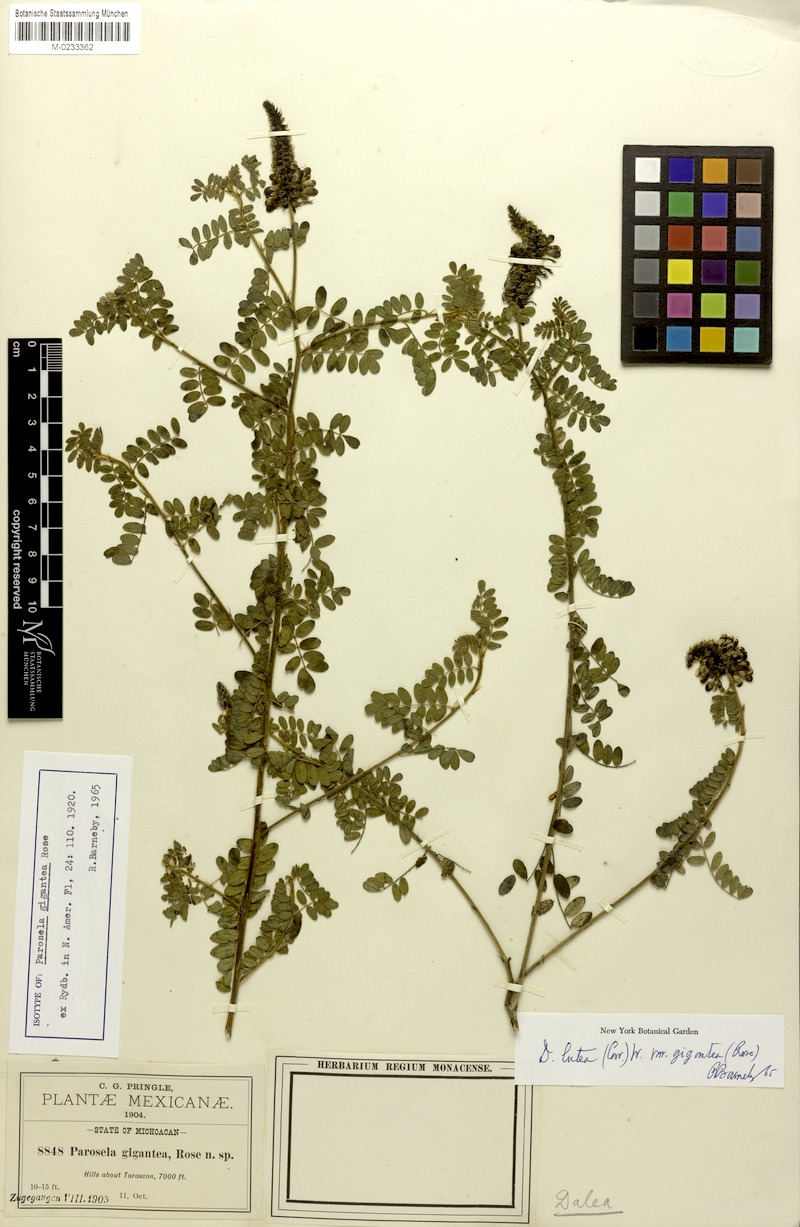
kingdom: Plantae
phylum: Tracheophyta
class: Magnoliopsida
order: Fabales
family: Fabaceae
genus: Dalea
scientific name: Dalea lutea
